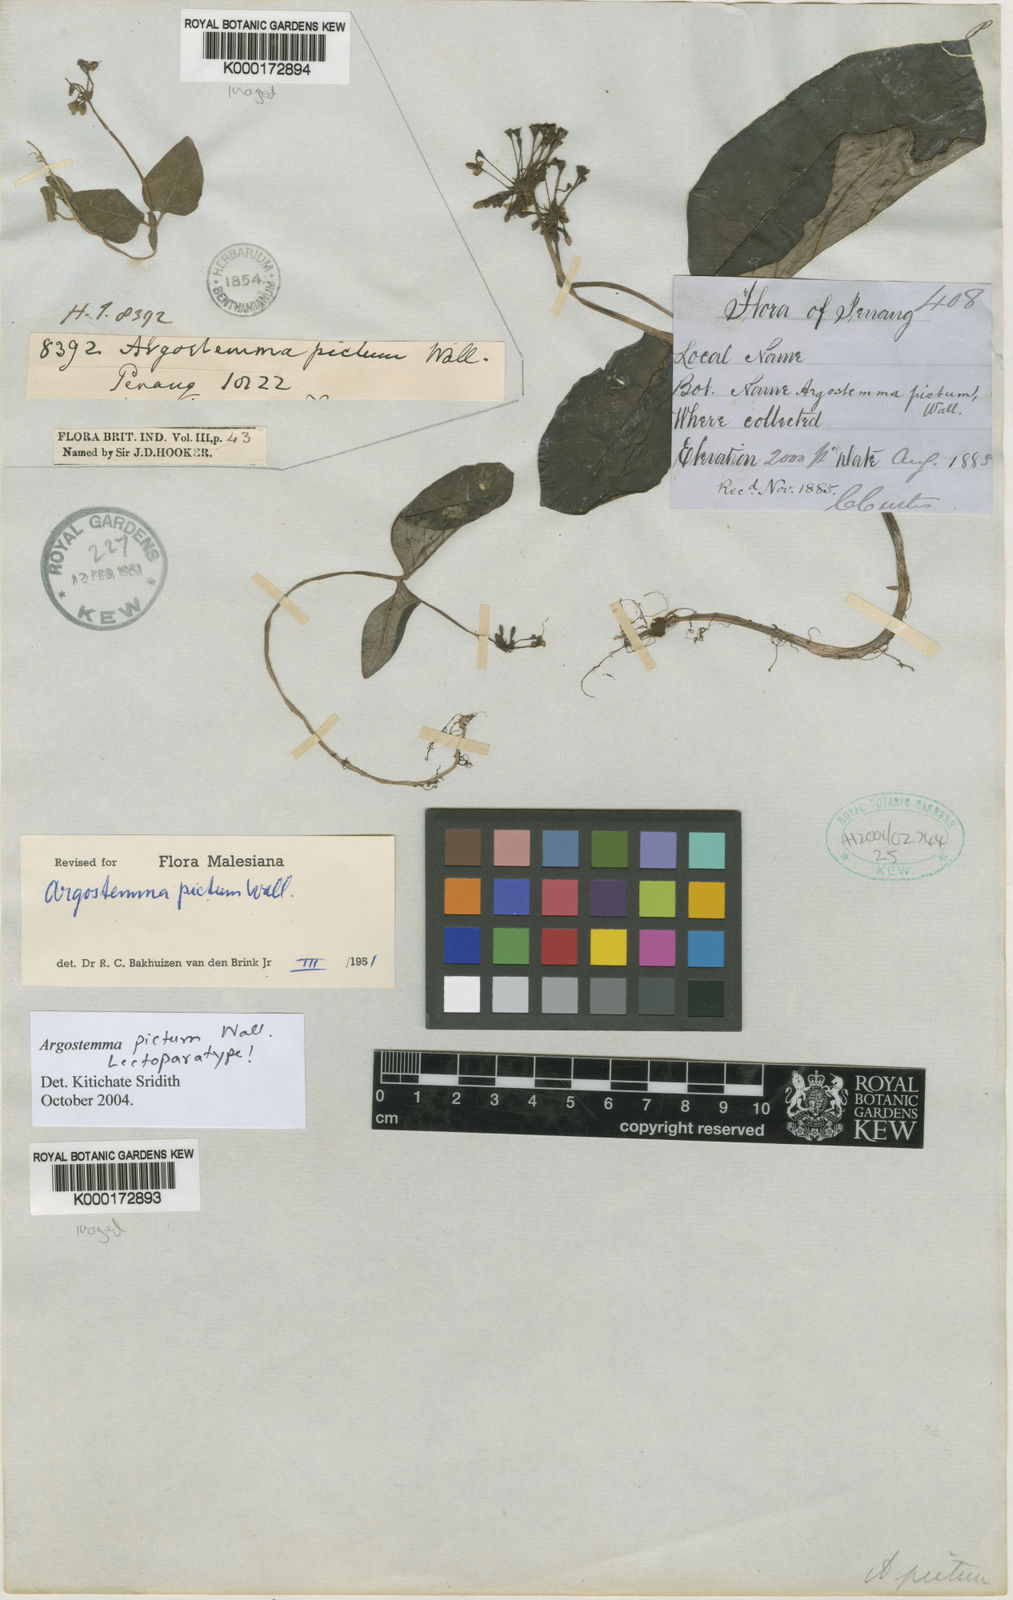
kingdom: Plantae
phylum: Tracheophyta
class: Magnoliopsida
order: Gentianales
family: Rubiaceae
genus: Argostemma
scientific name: Argostemma pictum
